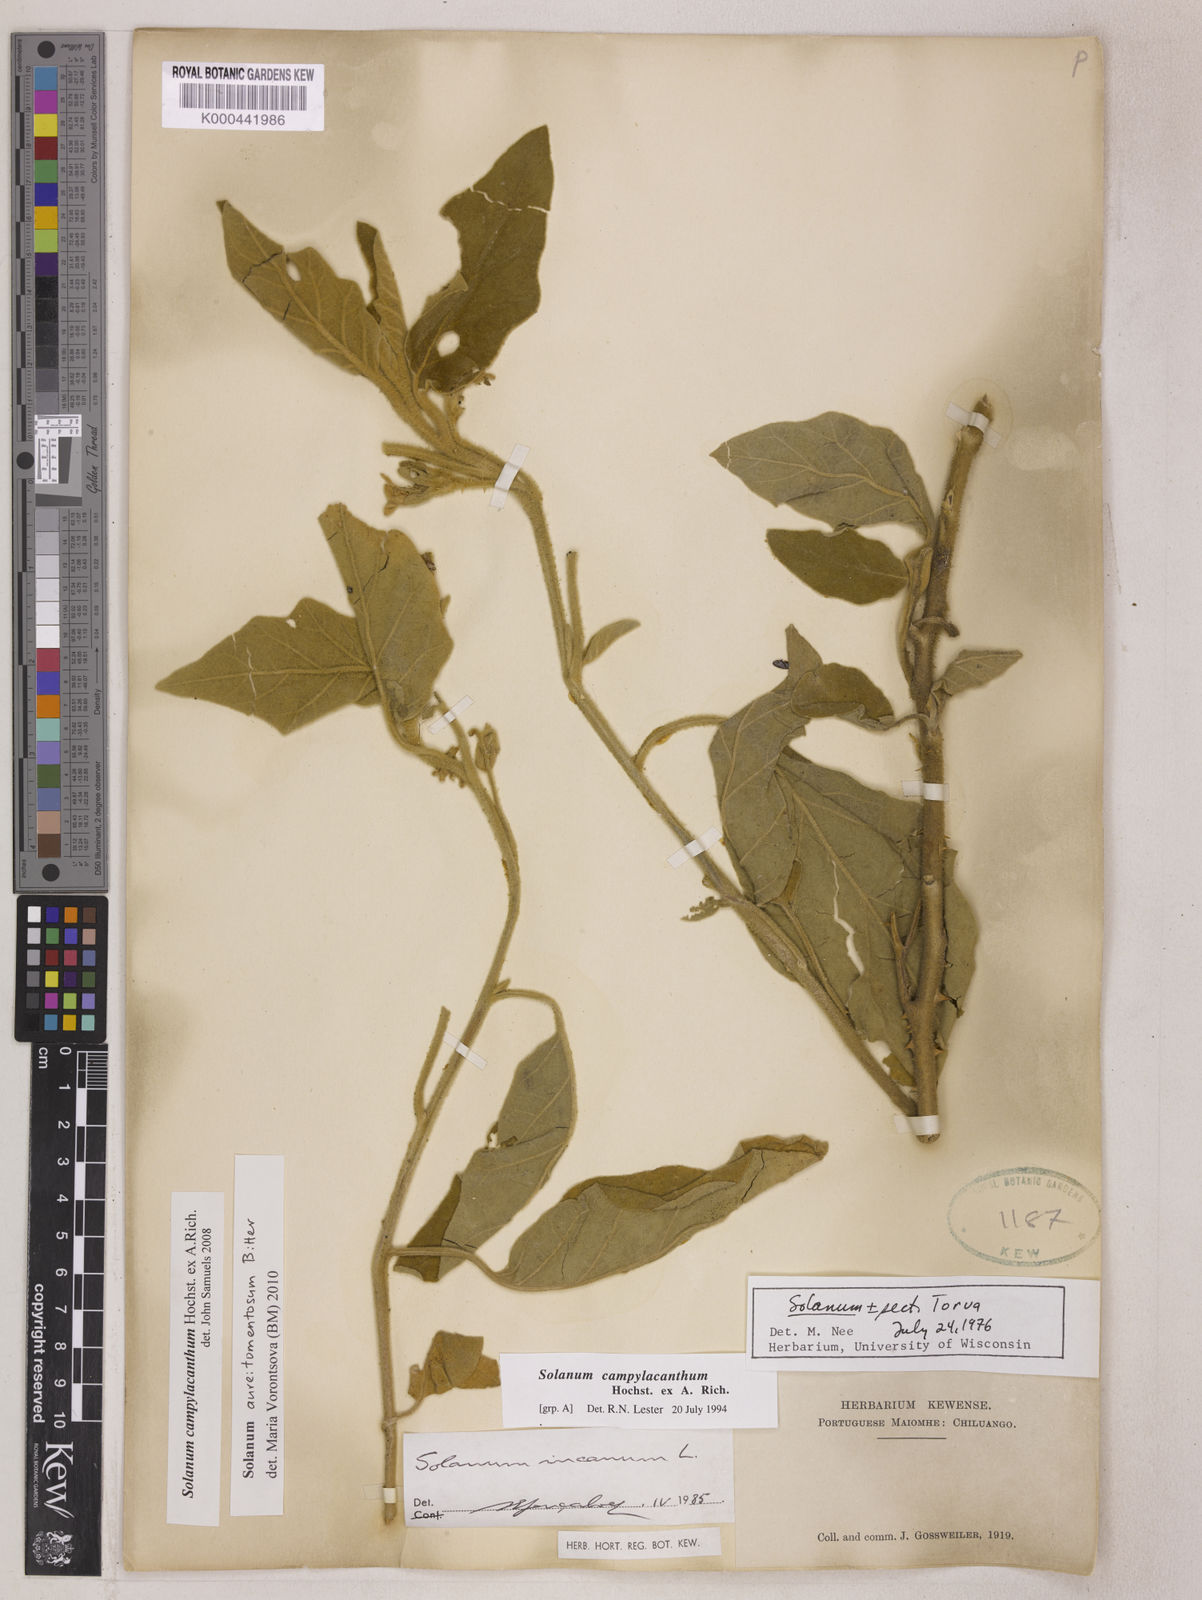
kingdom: Plantae
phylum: Tracheophyta
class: Magnoliopsida
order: Solanales
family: Solanaceae
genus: Solanum
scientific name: Solanum aureitomentosum
